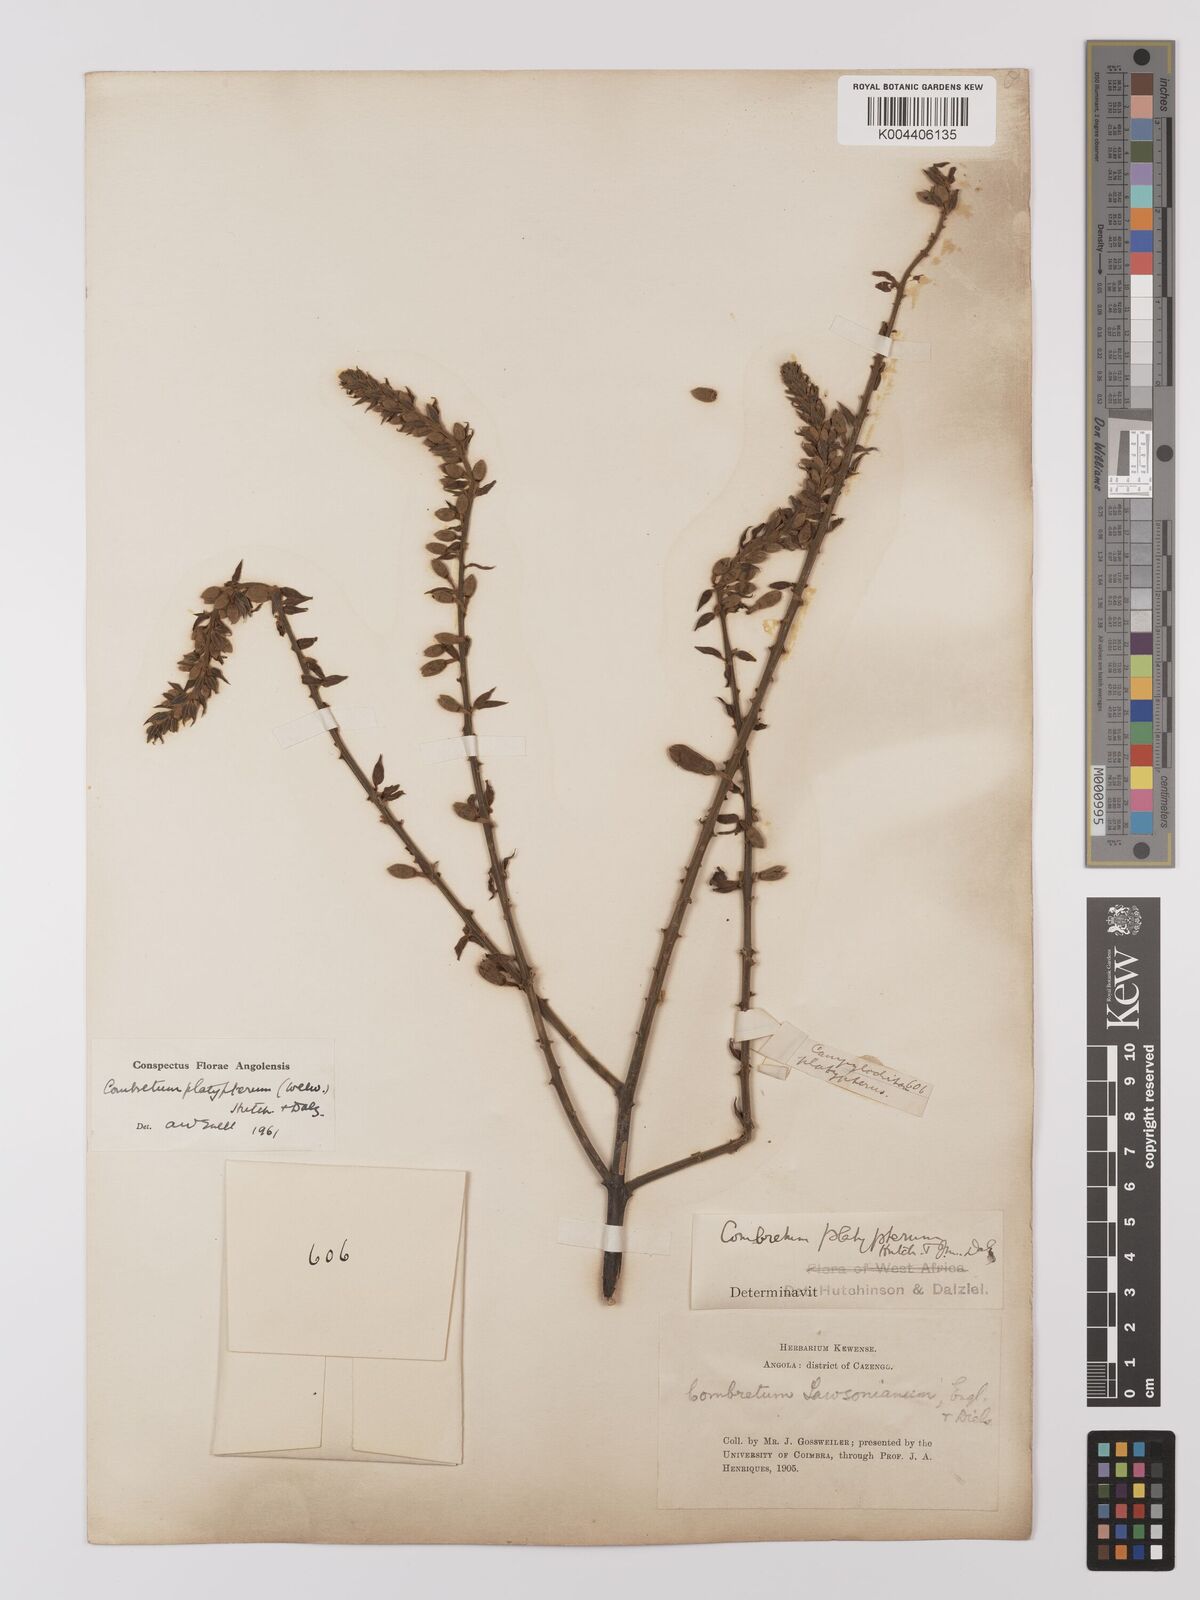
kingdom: Plantae
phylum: Tracheophyta
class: Magnoliopsida
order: Myrtales
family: Combretaceae
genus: Combretum
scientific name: Combretum platypterum
